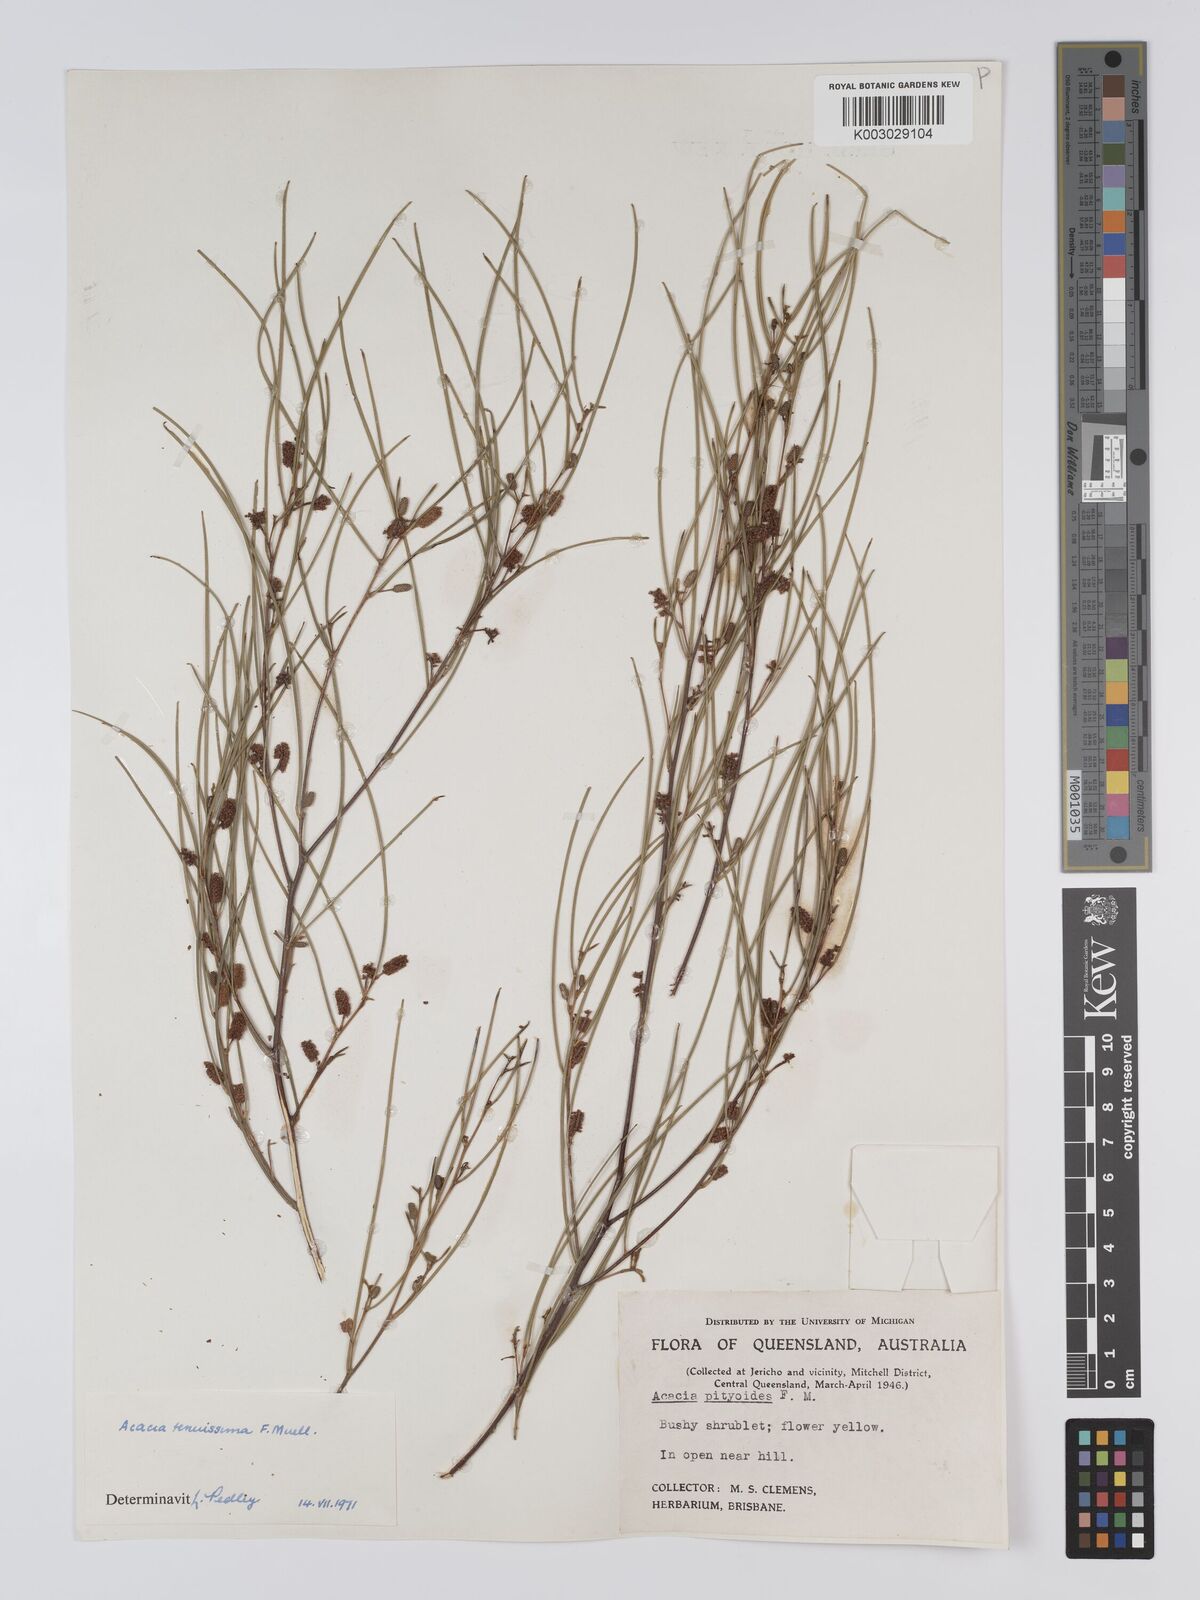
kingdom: Plantae
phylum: Tracheophyta
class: Magnoliopsida
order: Fabales
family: Fabaceae
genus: Acacia
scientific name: Acacia tenuissima
